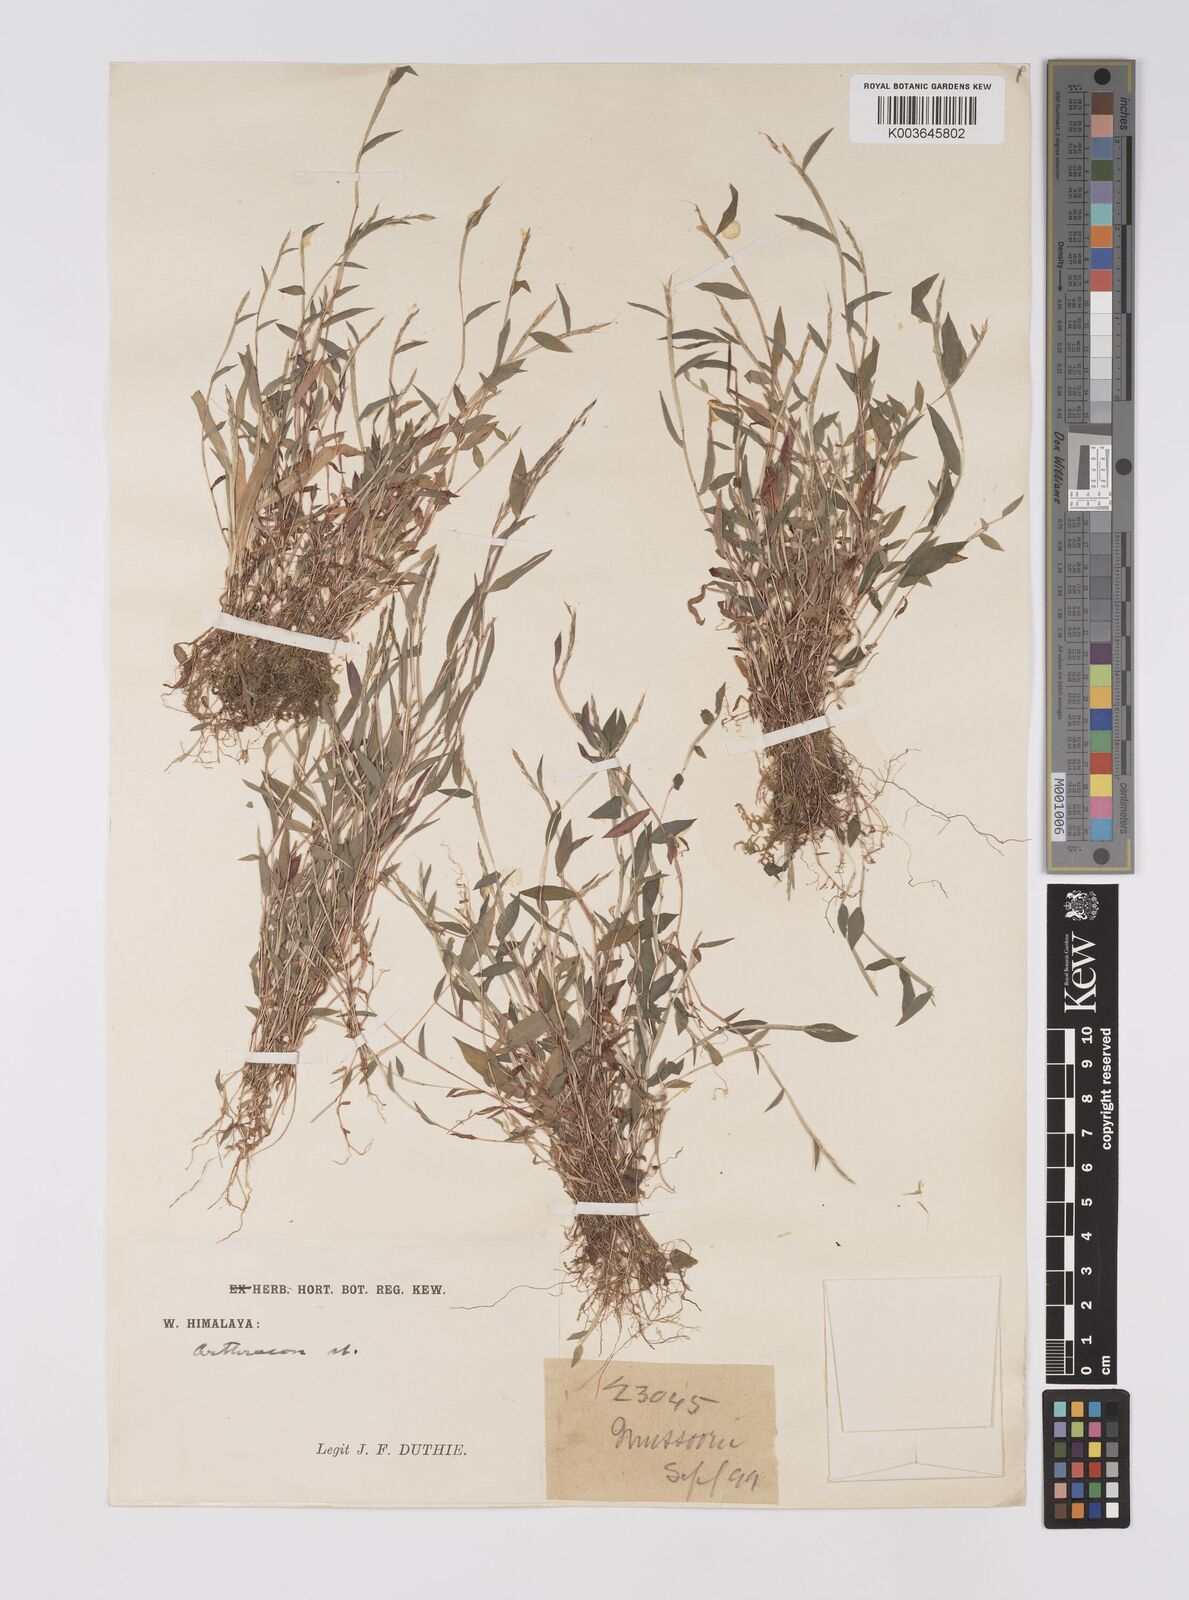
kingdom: Plantae
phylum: Tracheophyta
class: Liliopsida
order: Poales
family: Poaceae
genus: Microstegium
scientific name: Microstegium falconeri
